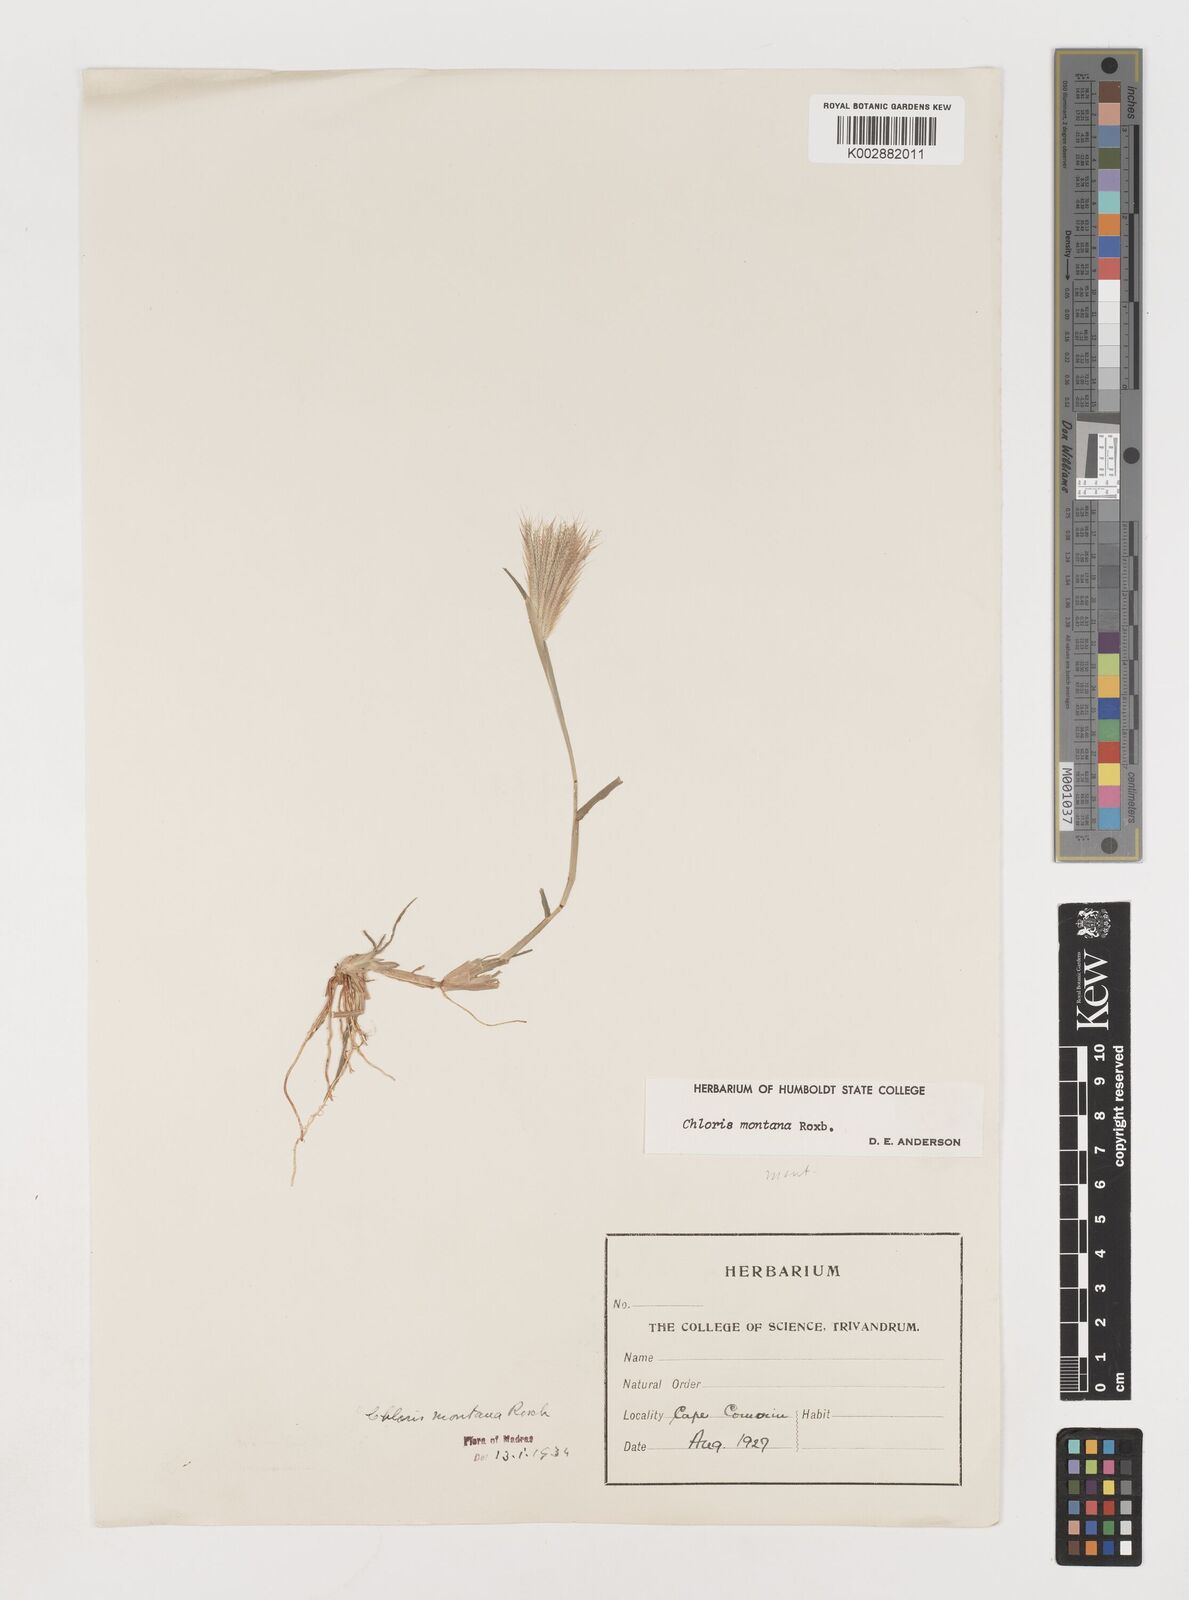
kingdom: Plantae
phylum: Tracheophyta
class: Liliopsida
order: Poales
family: Poaceae
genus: Chloris
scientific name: Chloris montana
